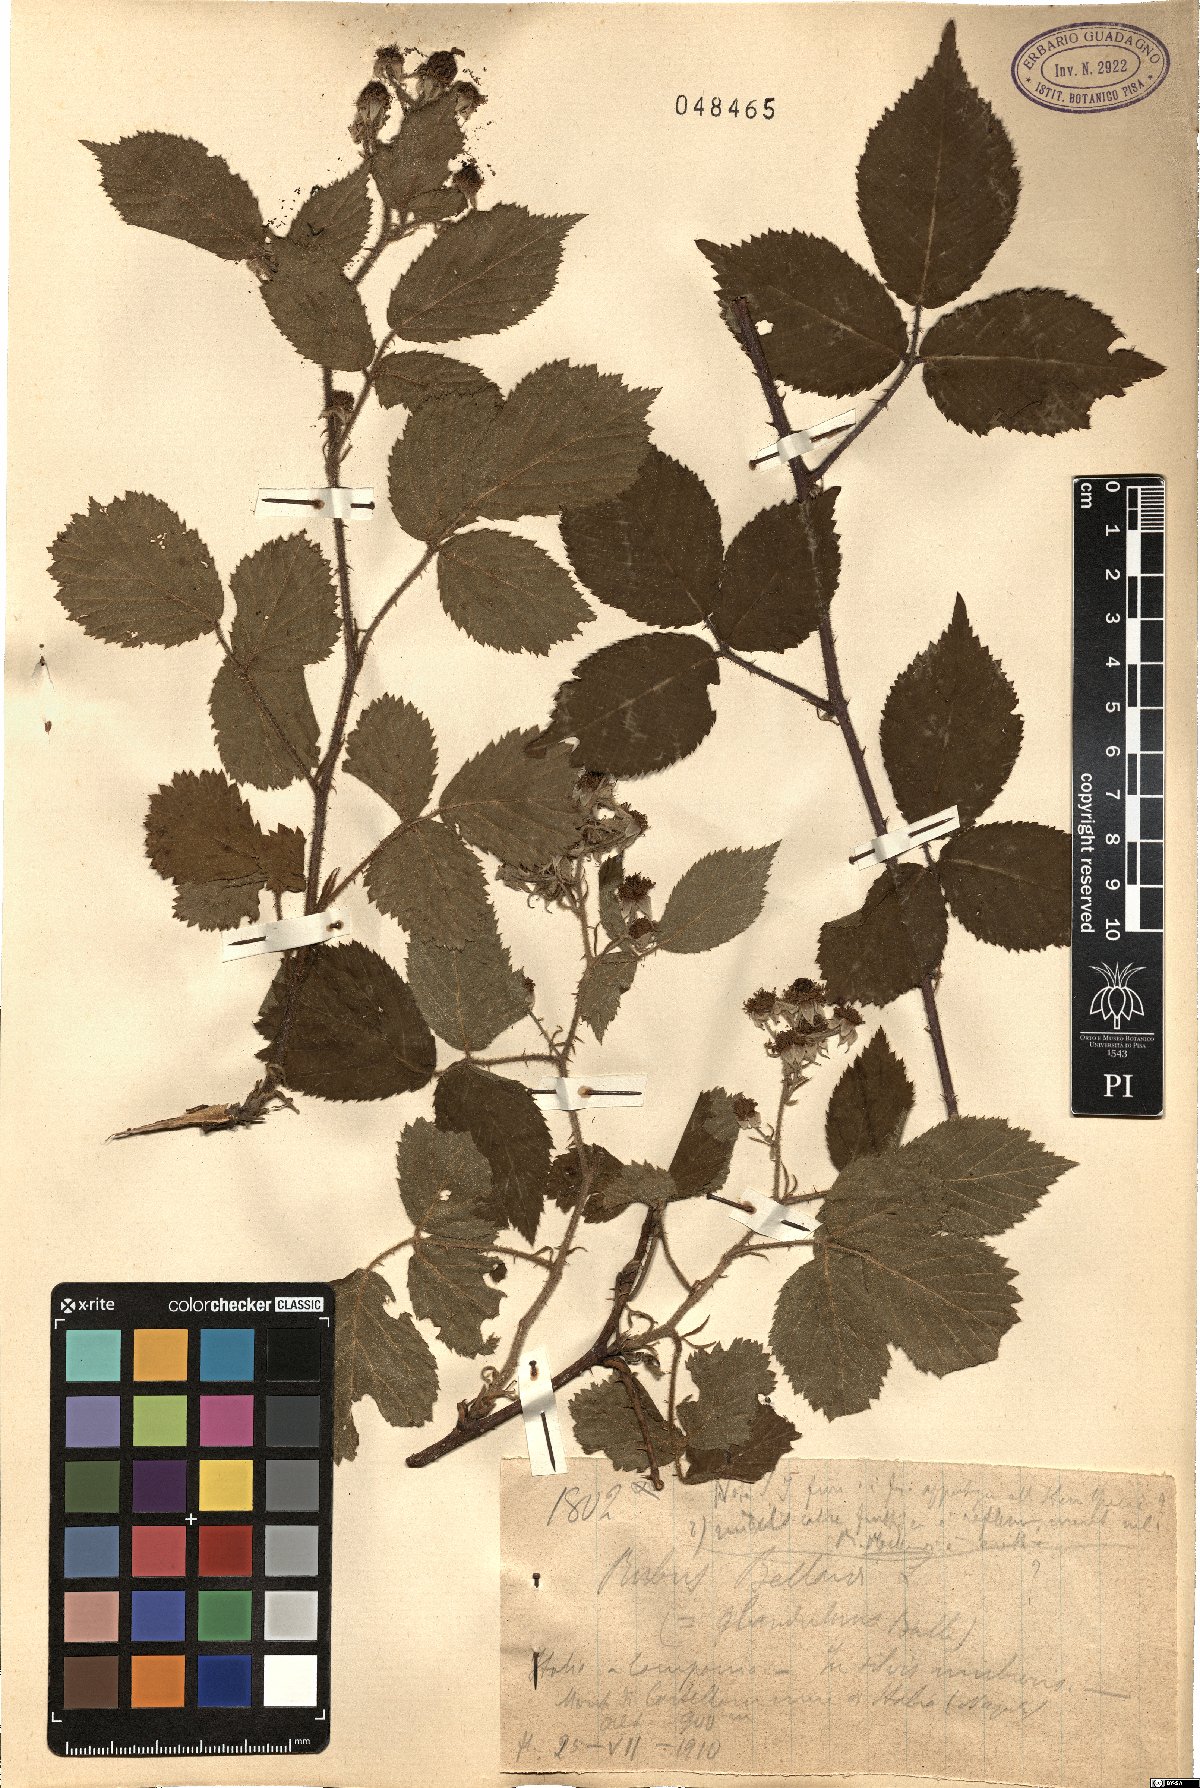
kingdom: Plantae
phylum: Tracheophyta
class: Magnoliopsida
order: Rosales
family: Rosaceae
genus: Rubus
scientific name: Rubus nigricans
